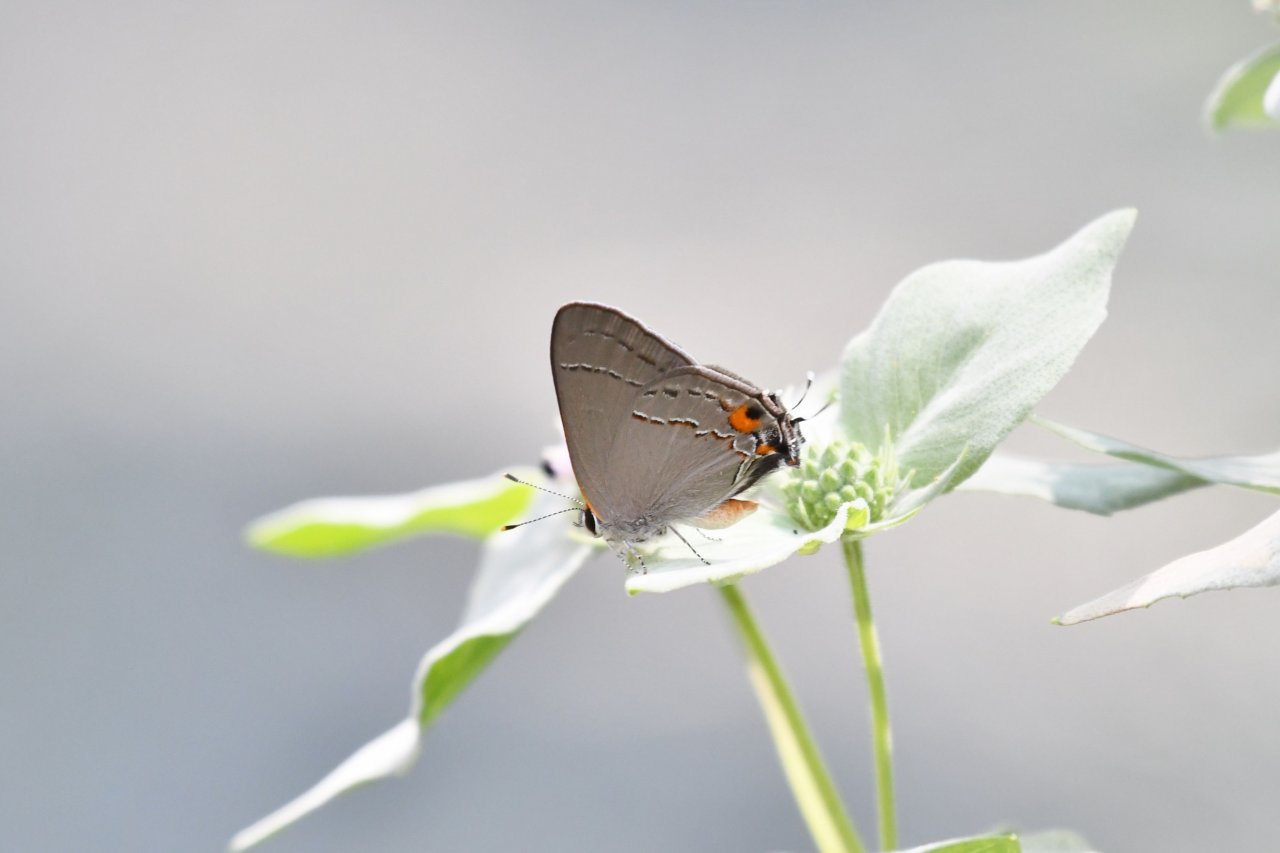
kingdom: Animalia
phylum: Arthropoda
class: Insecta
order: Lepidoptera
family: Lycaenidae
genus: Strymon
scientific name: Strymon melinus
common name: Gray Hairstreak
